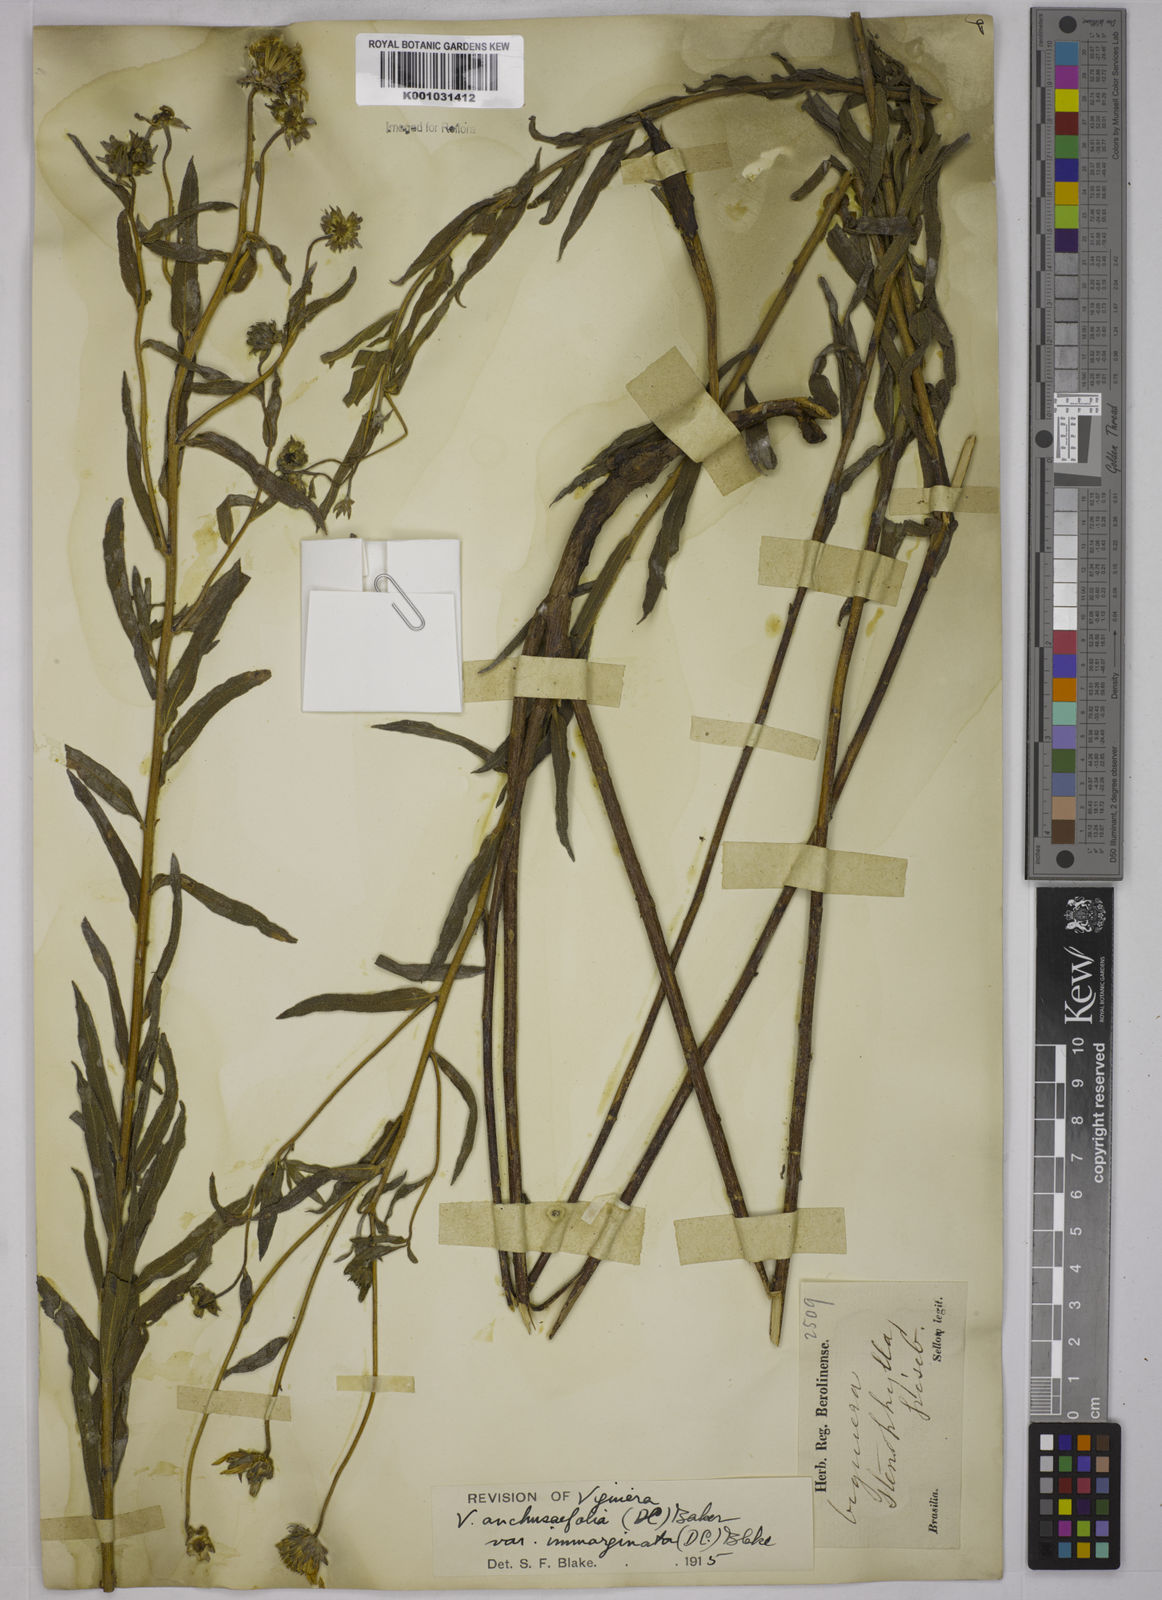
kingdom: Plantae
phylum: Tracheophyta
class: Magnoliopsida
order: Asterales
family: Asteraceae
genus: Viguiera
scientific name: Viguiera
